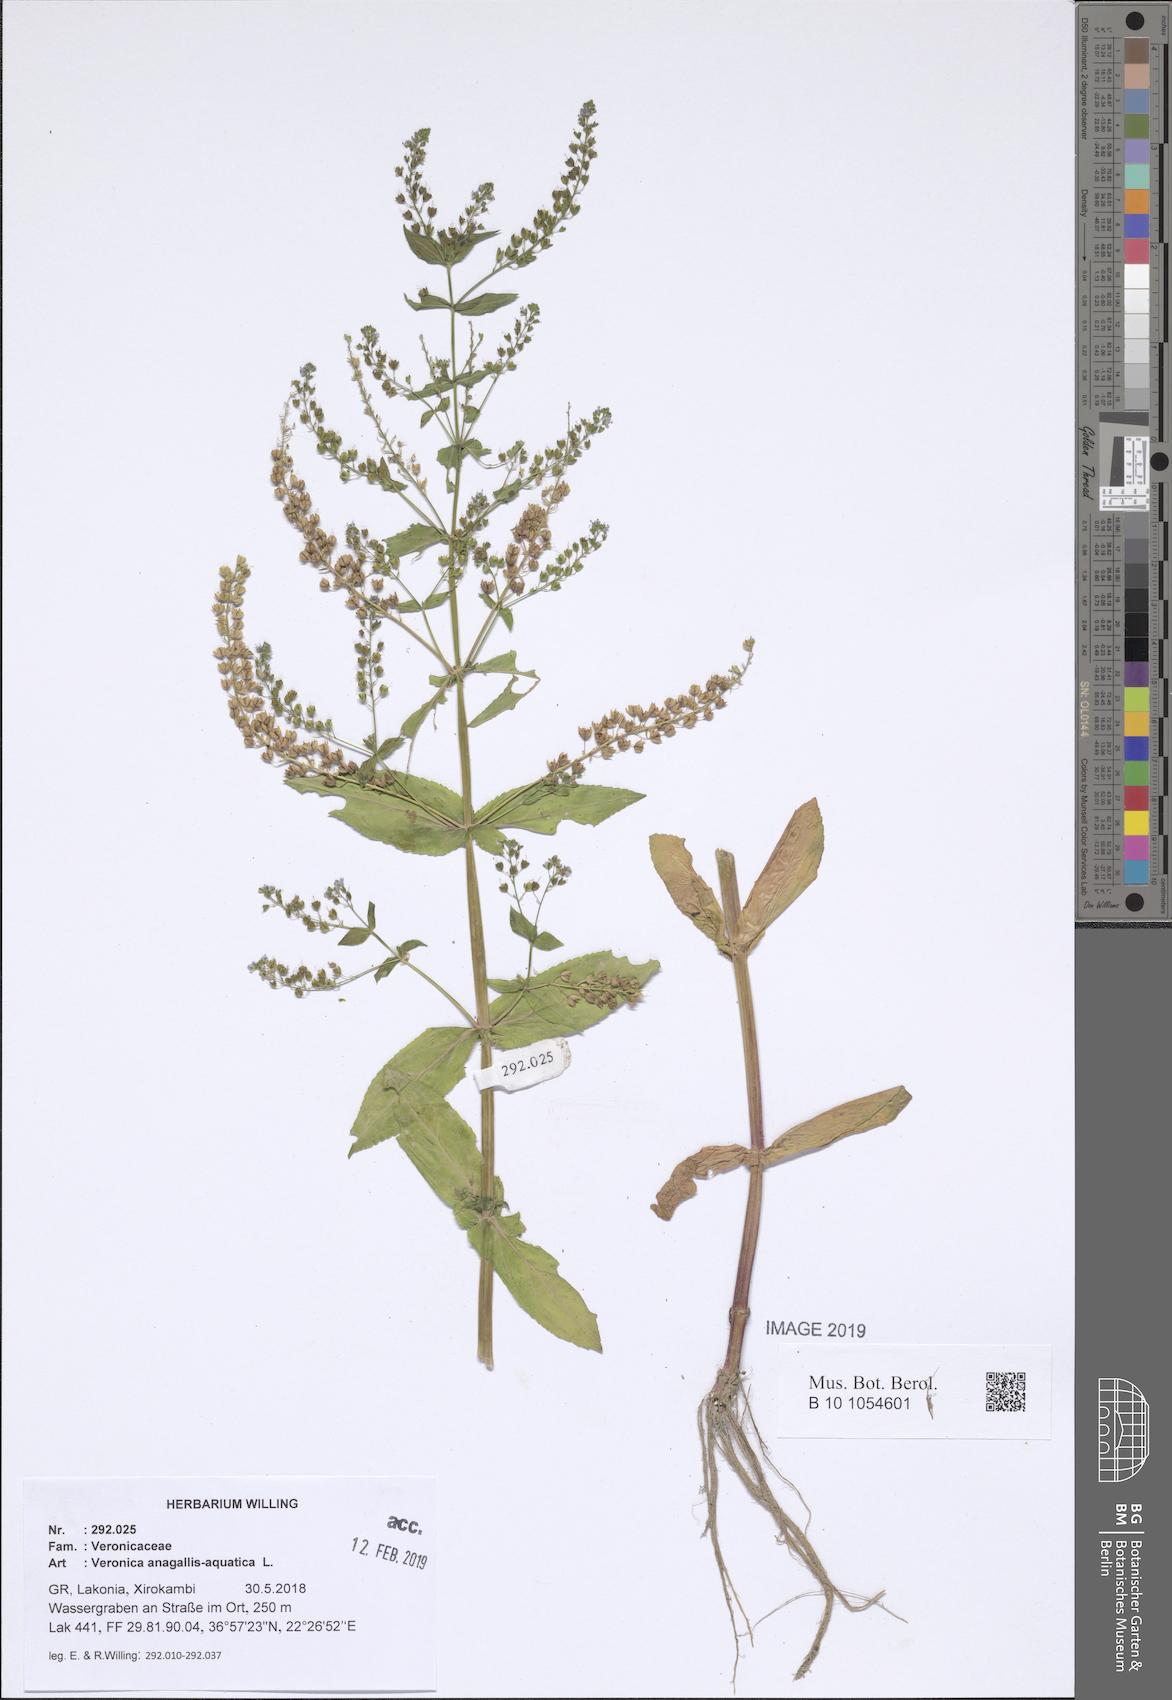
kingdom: Plantae
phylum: Tracheophyta
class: Magnoliopsida
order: Lamiales
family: Plantaginaceae
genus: Veronica
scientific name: Veronica anagallis-aquatica
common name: Water speedwell
